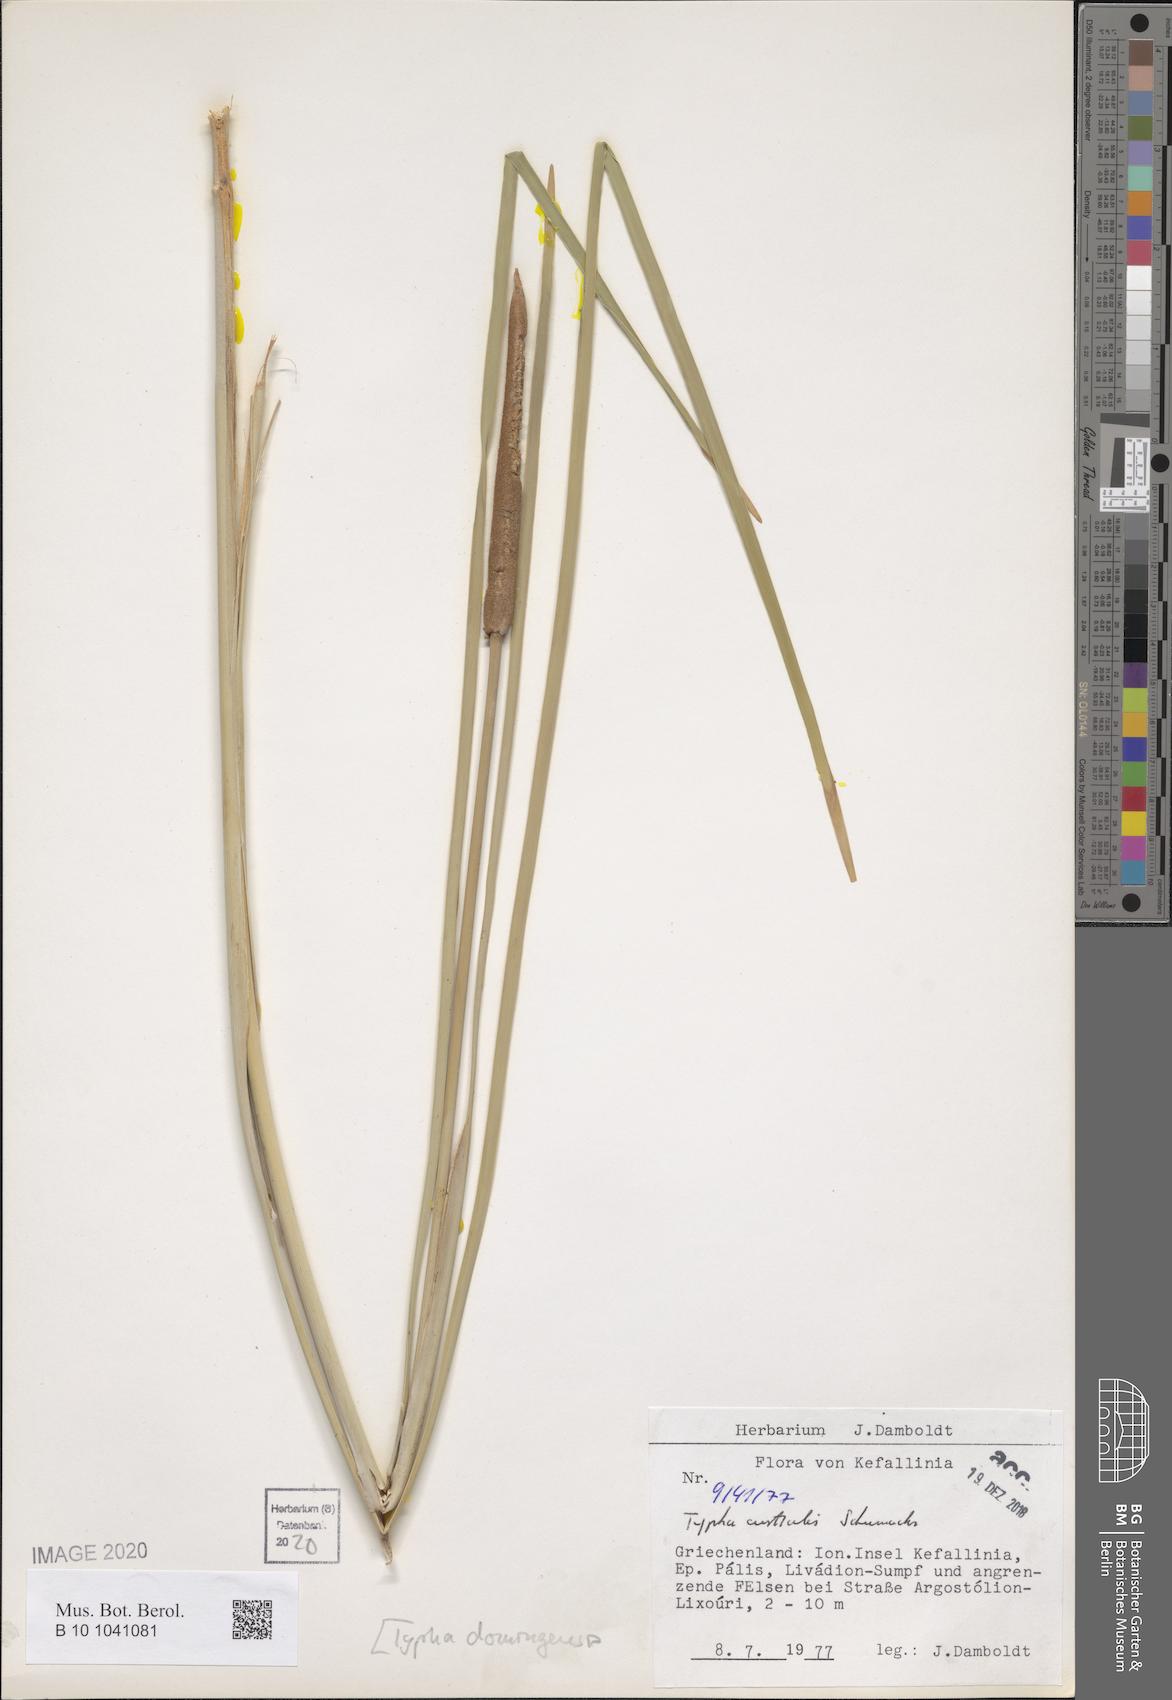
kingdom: Plantae
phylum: Tracheophyta
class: Liliopsida
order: Poales
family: Typhaceae
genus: Typha
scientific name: Typha domingensis
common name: Southern cattail
